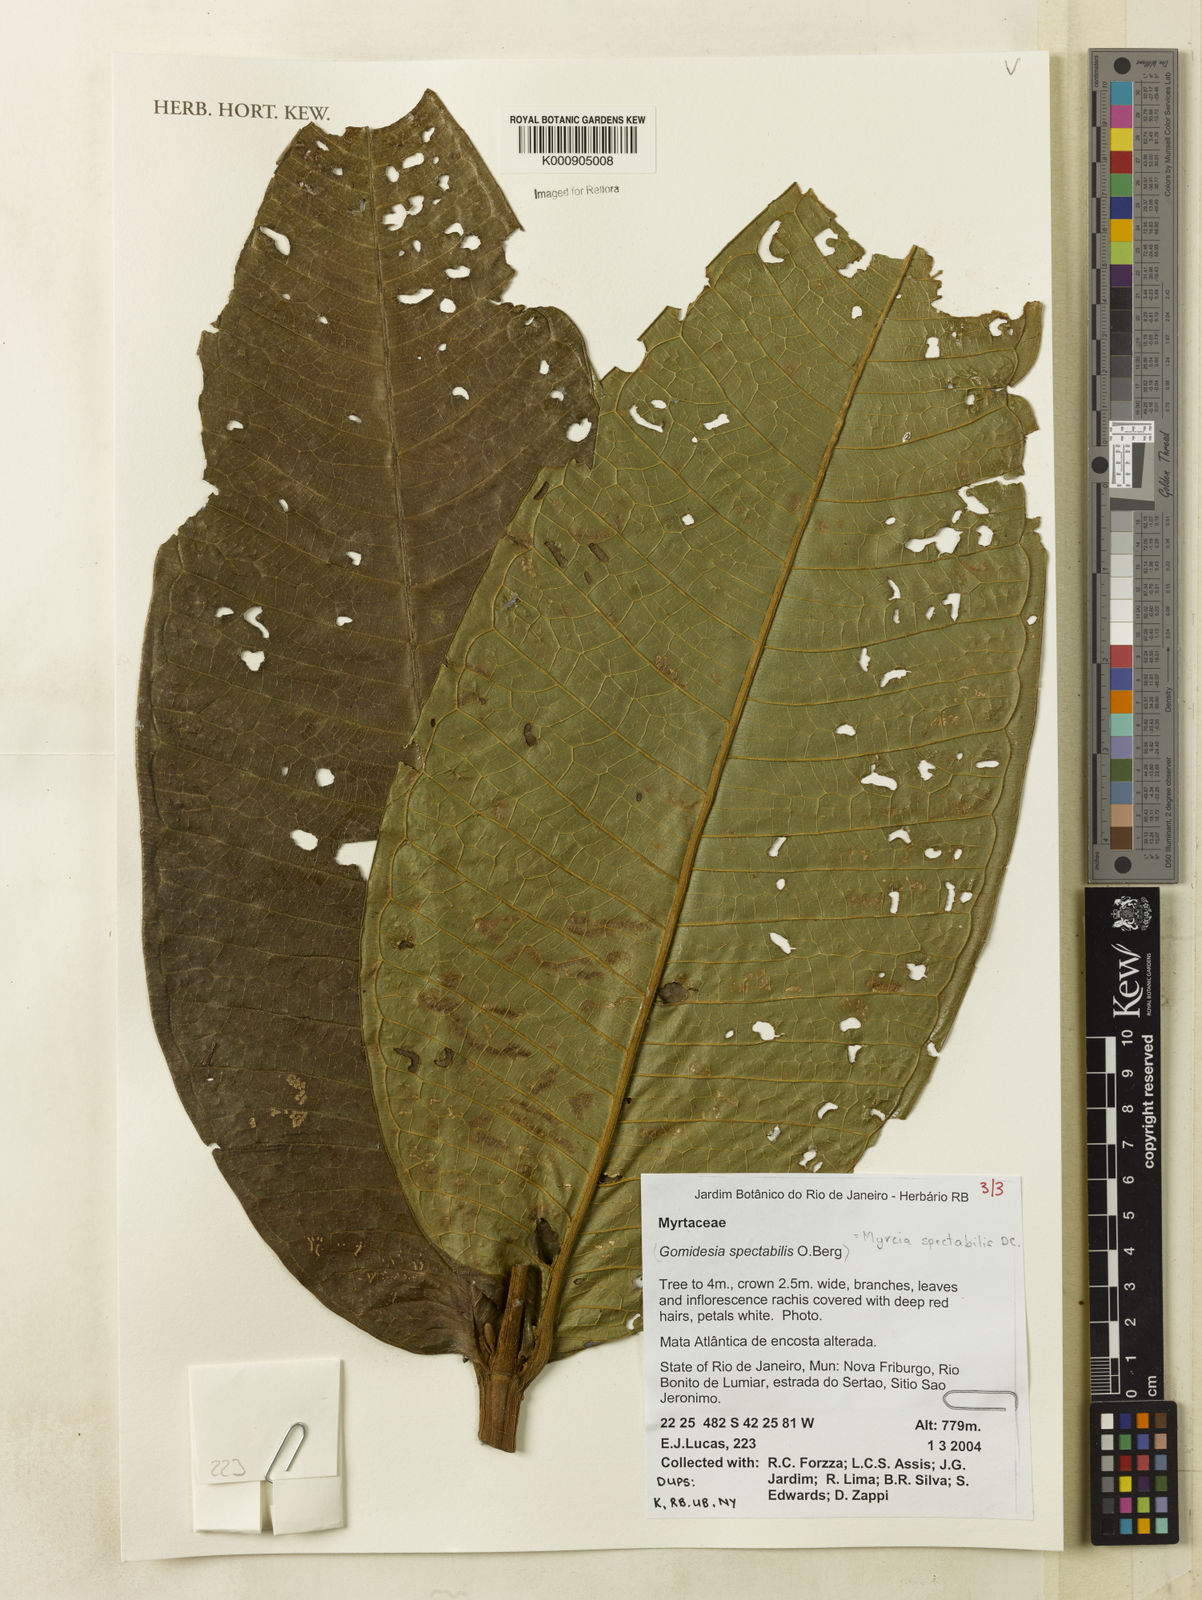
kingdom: Plantae
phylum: Tracheophyta
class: Magnoliopsida
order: Myrtales
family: Myrtaceae
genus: Myrcia
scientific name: Myrcia spectabilis
